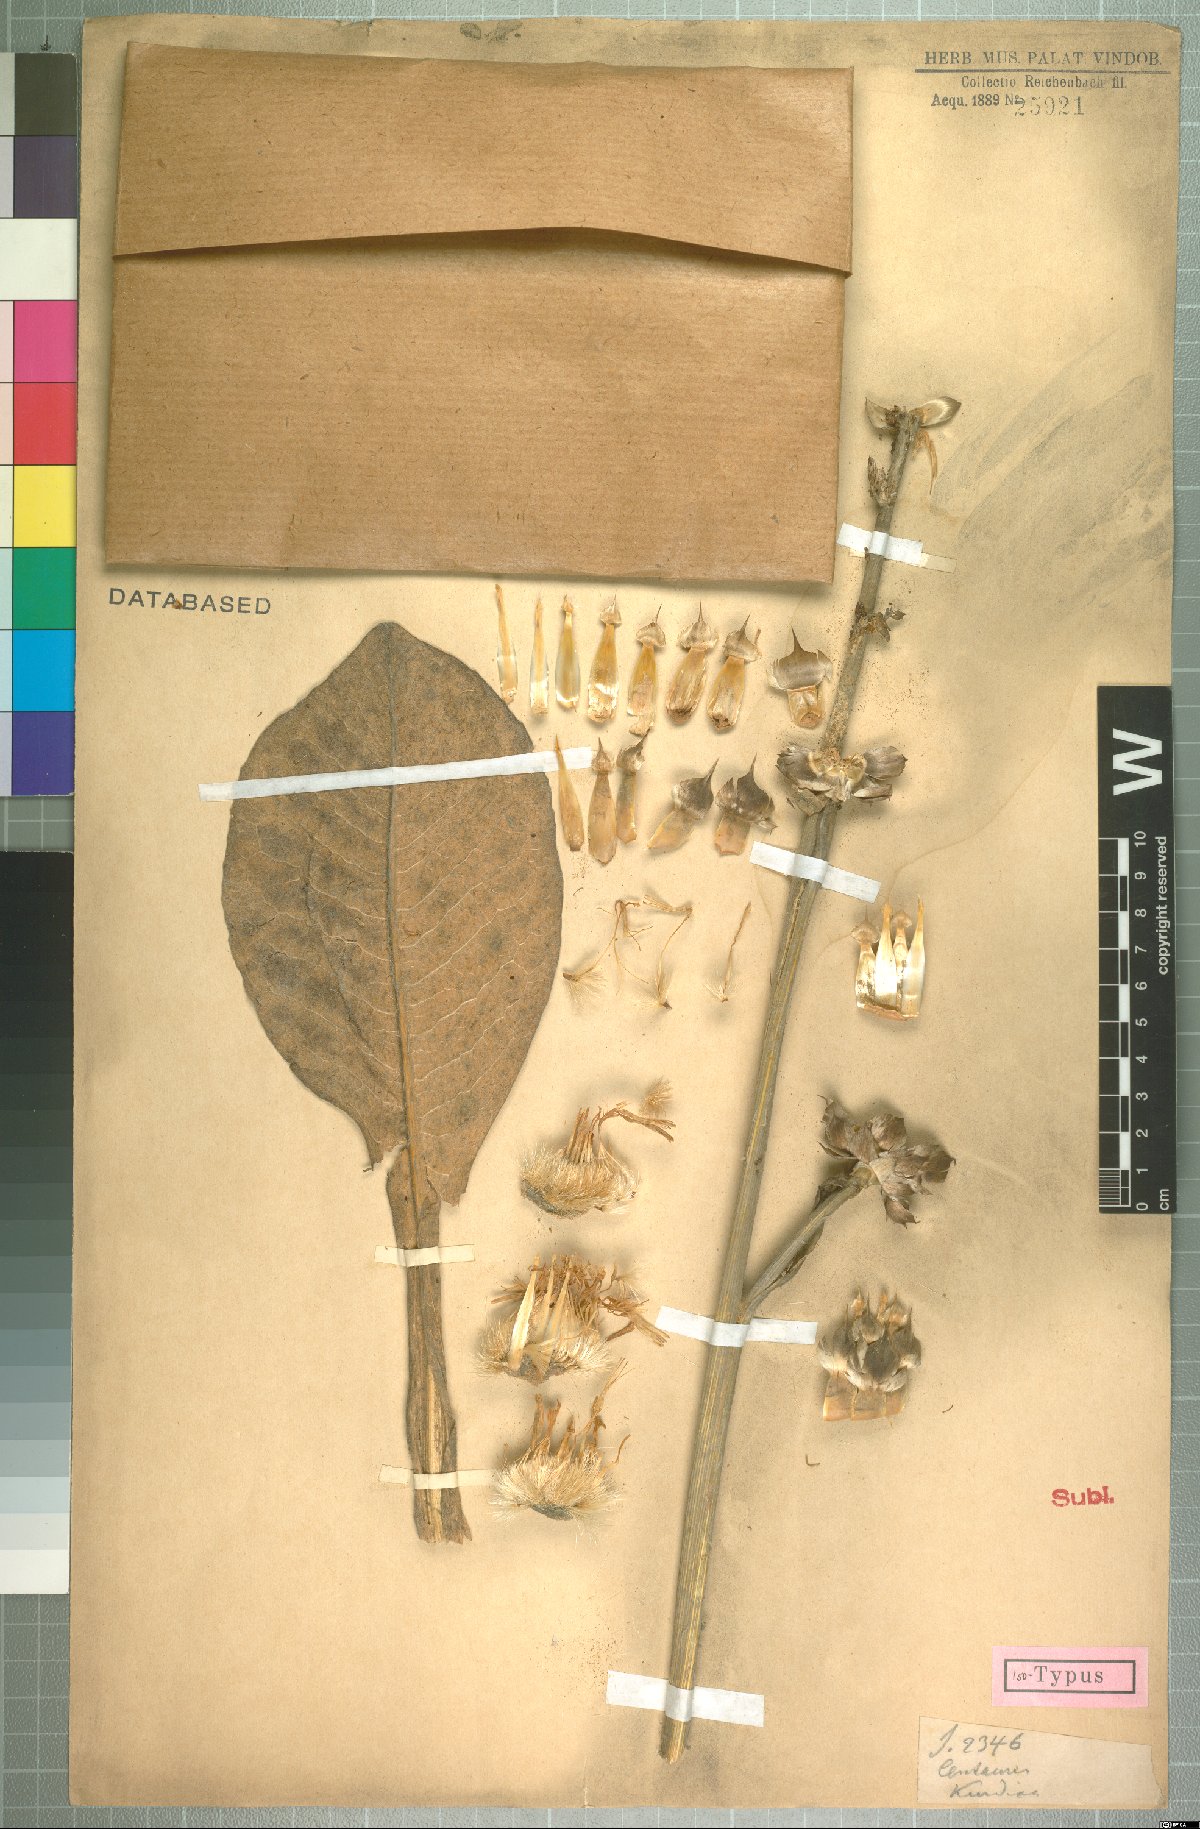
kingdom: Plantae
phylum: Tracheophyta
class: Magnoliopsida
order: Asterales
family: Asteraceae
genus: Centaurea
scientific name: Centaurea kurdica
